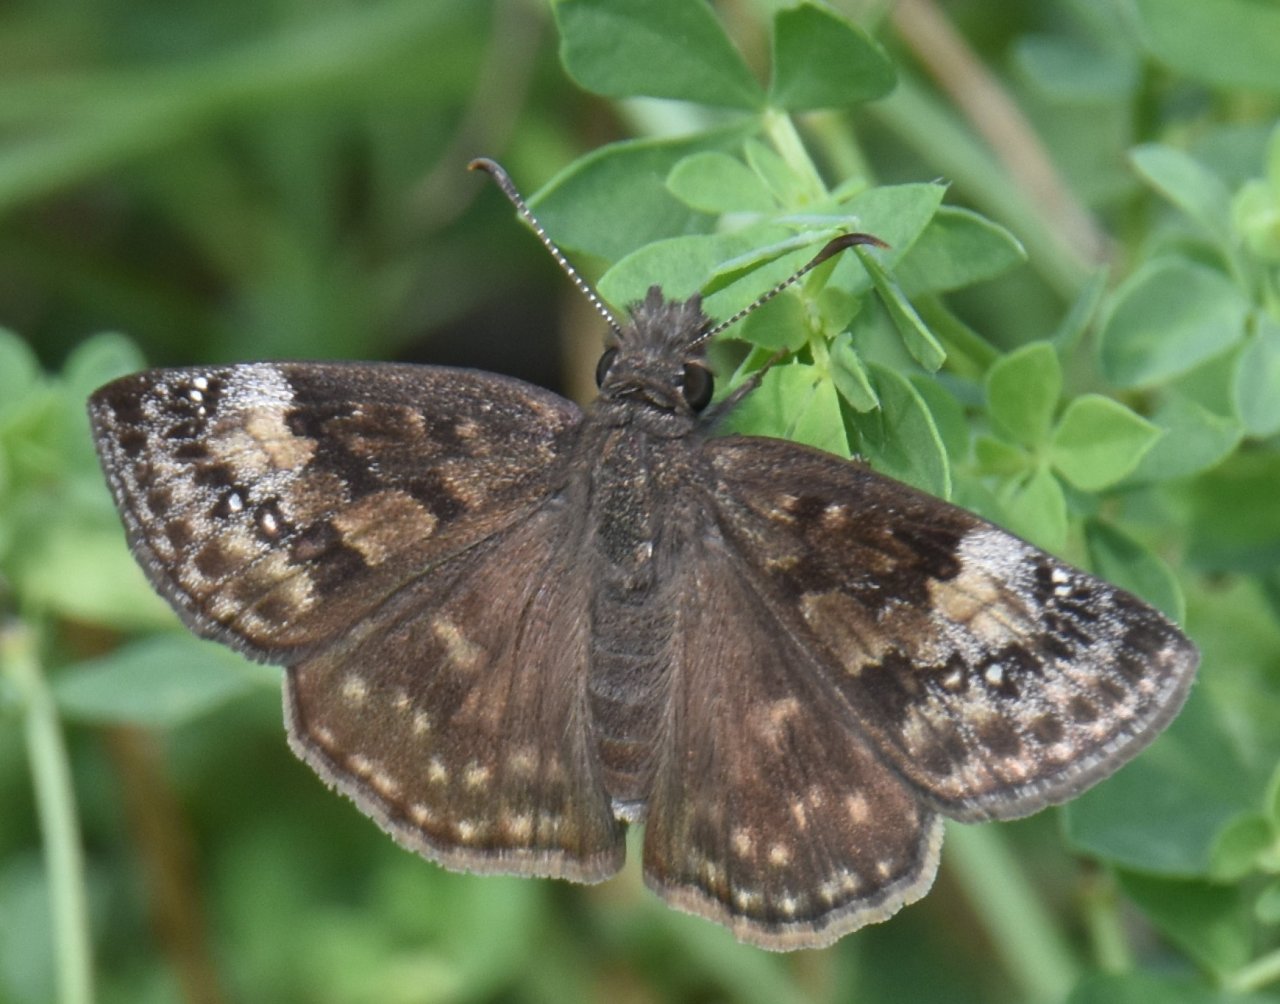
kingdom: Animalia
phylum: Arthropoda
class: Insecta
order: Lepidoptera
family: Hesperiidae
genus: Gesta
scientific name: Gesta
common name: Wild Indigo Duskywing
